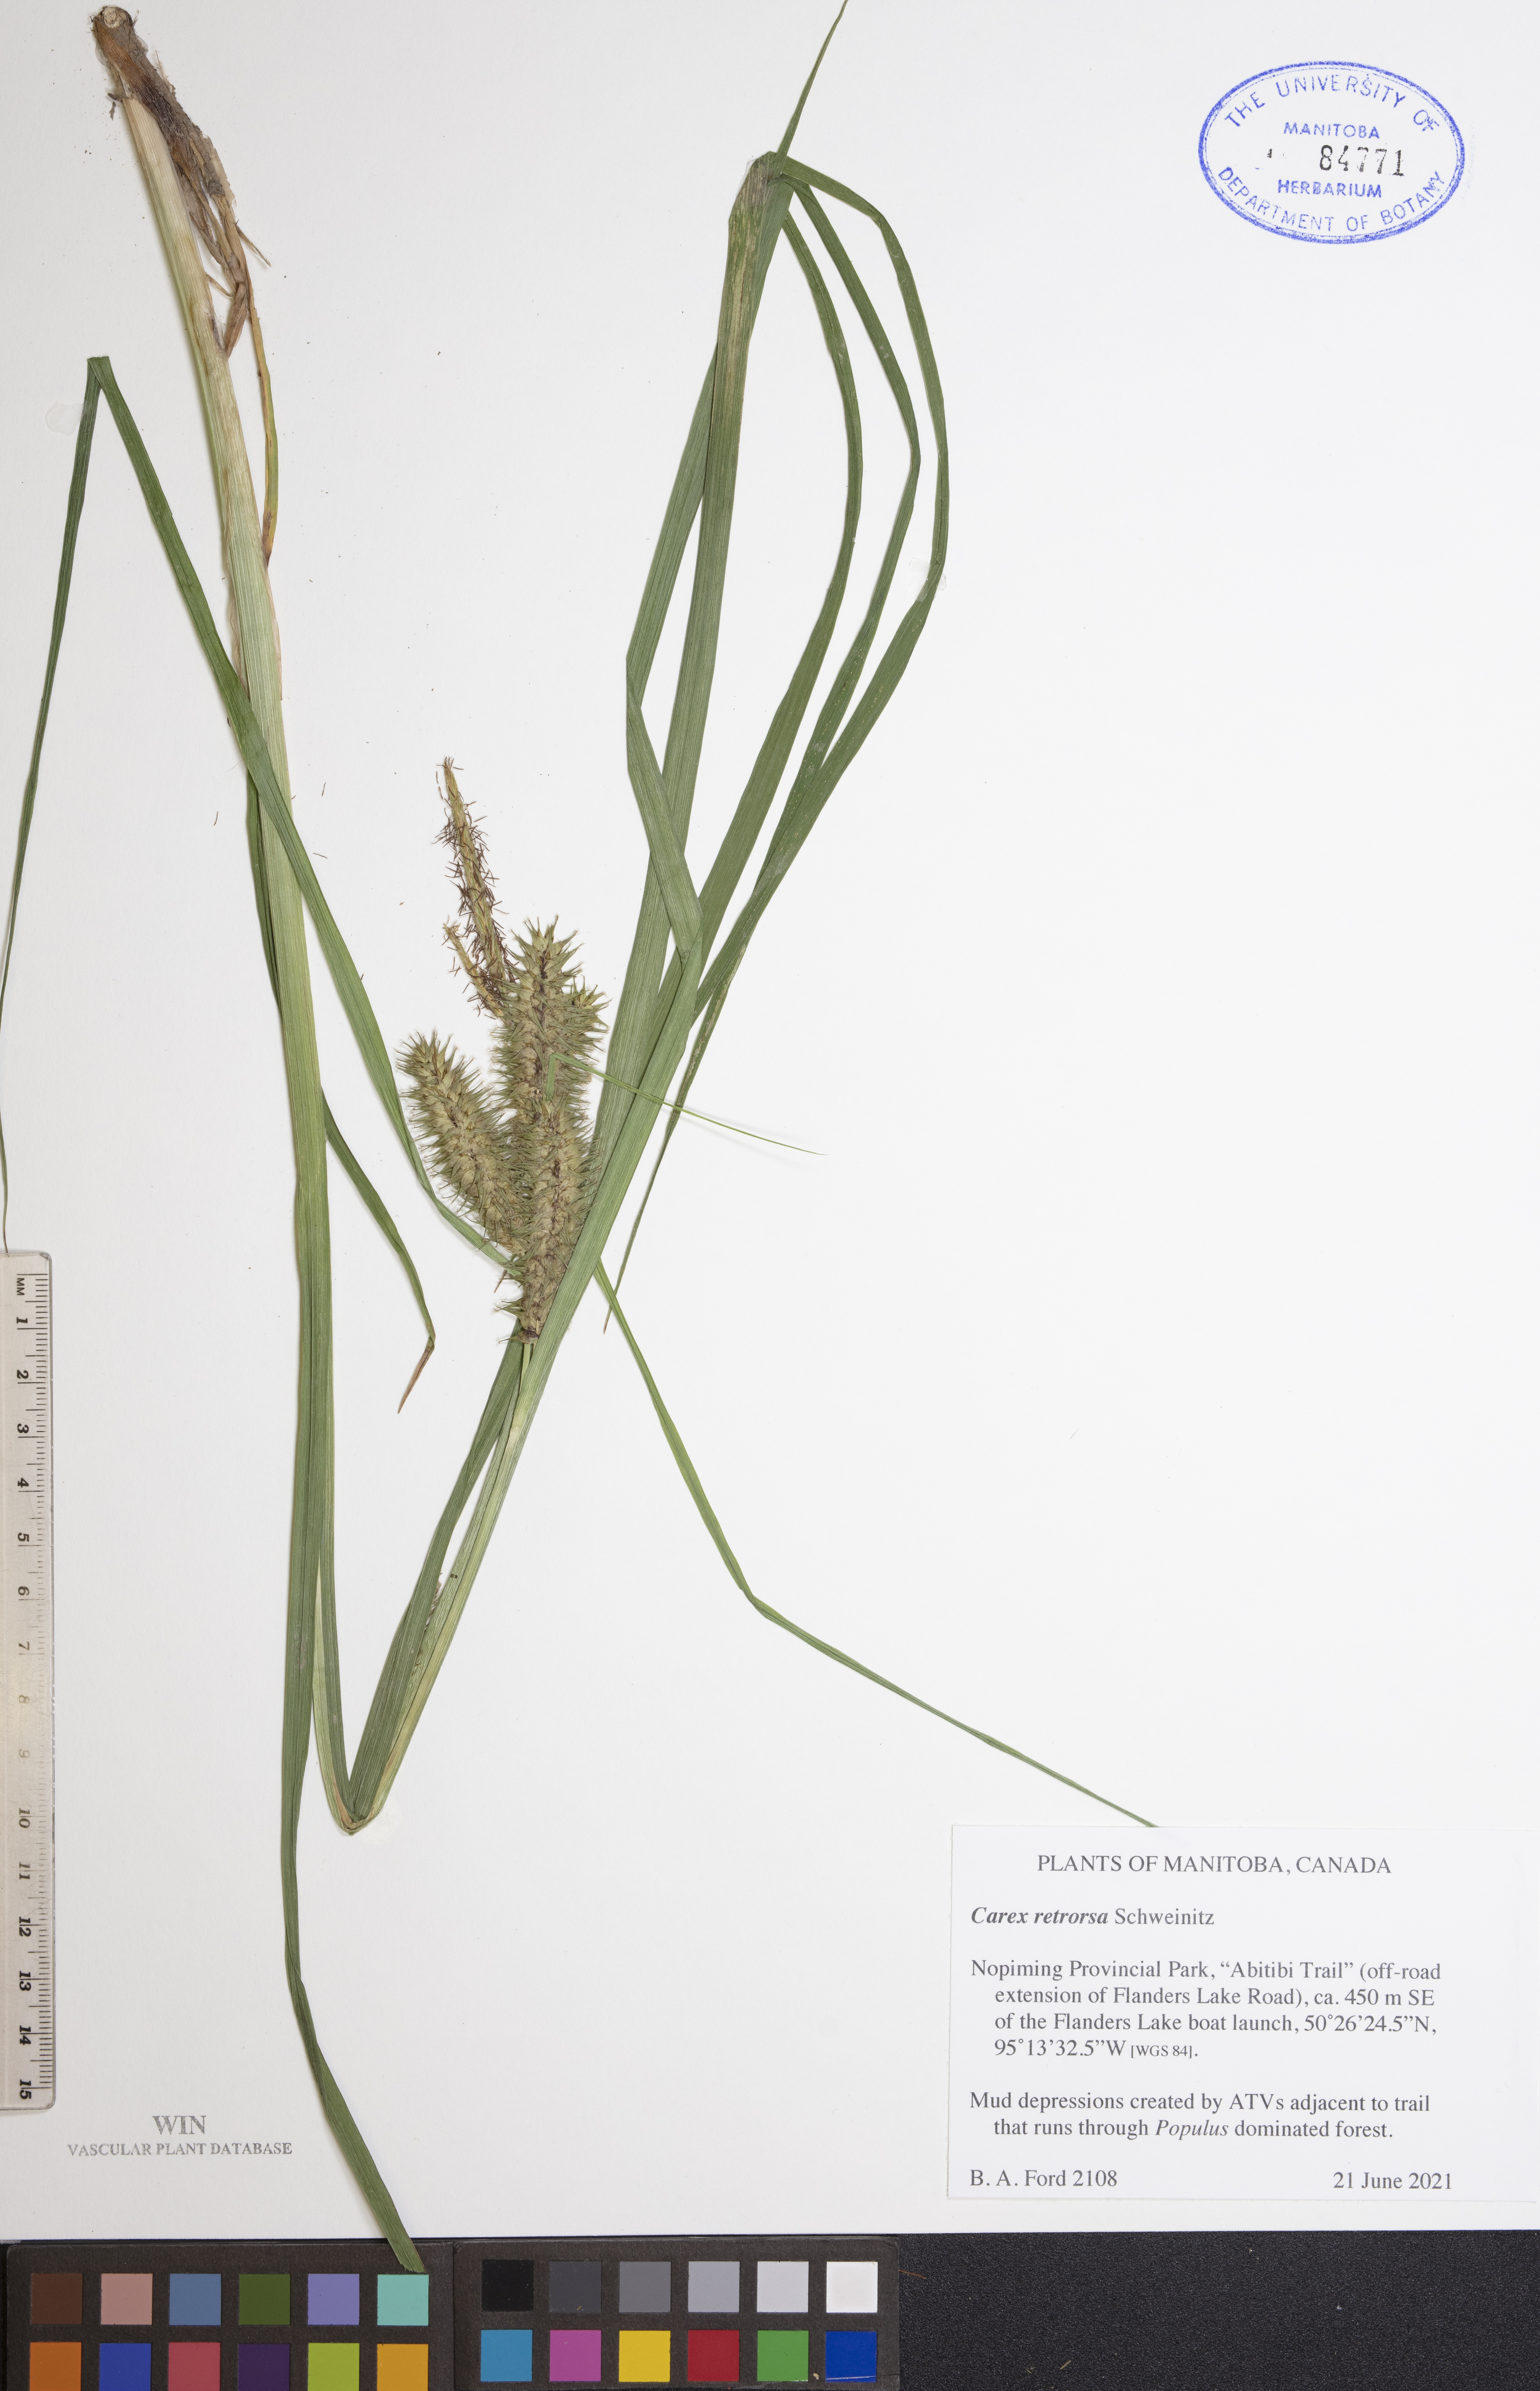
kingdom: Plantae
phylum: Tracheophyta
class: Liliopsida
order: Poales
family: Cyperaceae
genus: Carex
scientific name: Carex retrorsa
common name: Knot-sheath sedge
